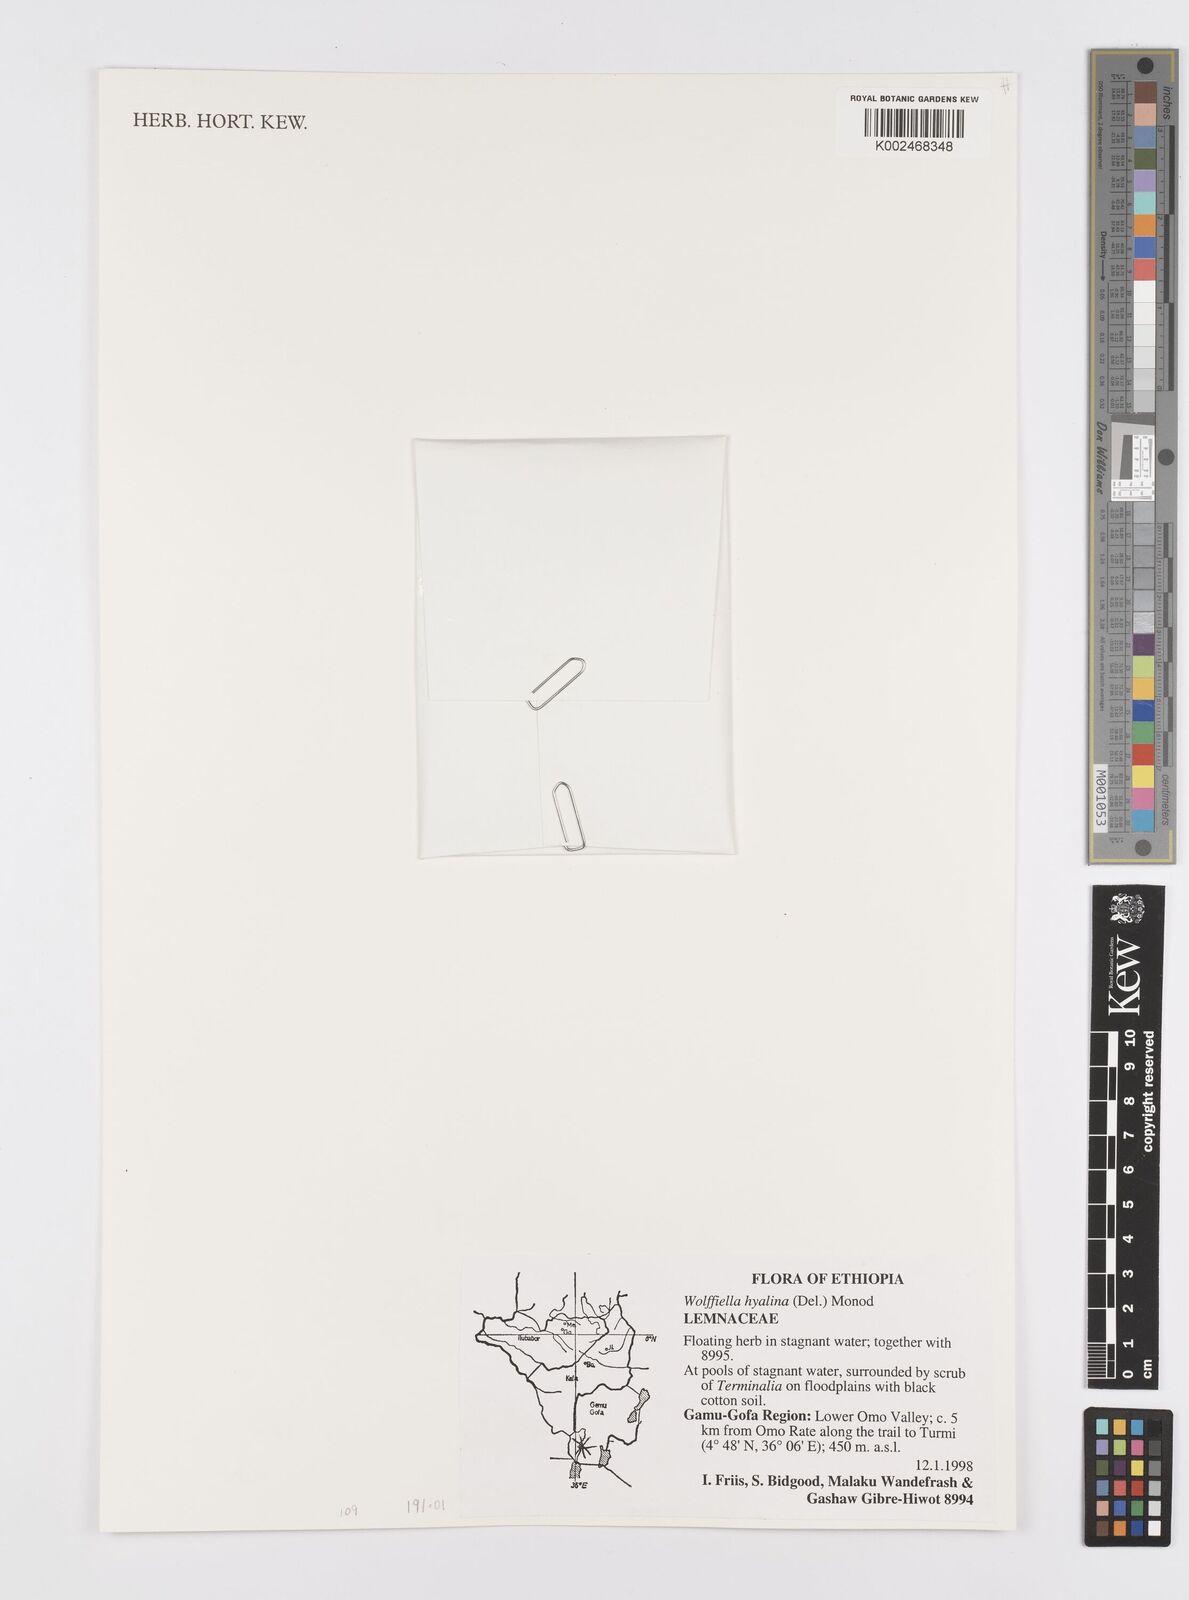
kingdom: Plantae
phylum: Tracheophyta
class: Liliopsida
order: Alismatales
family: Araceae
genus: Wolffiella
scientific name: Wolffiella hyalina
